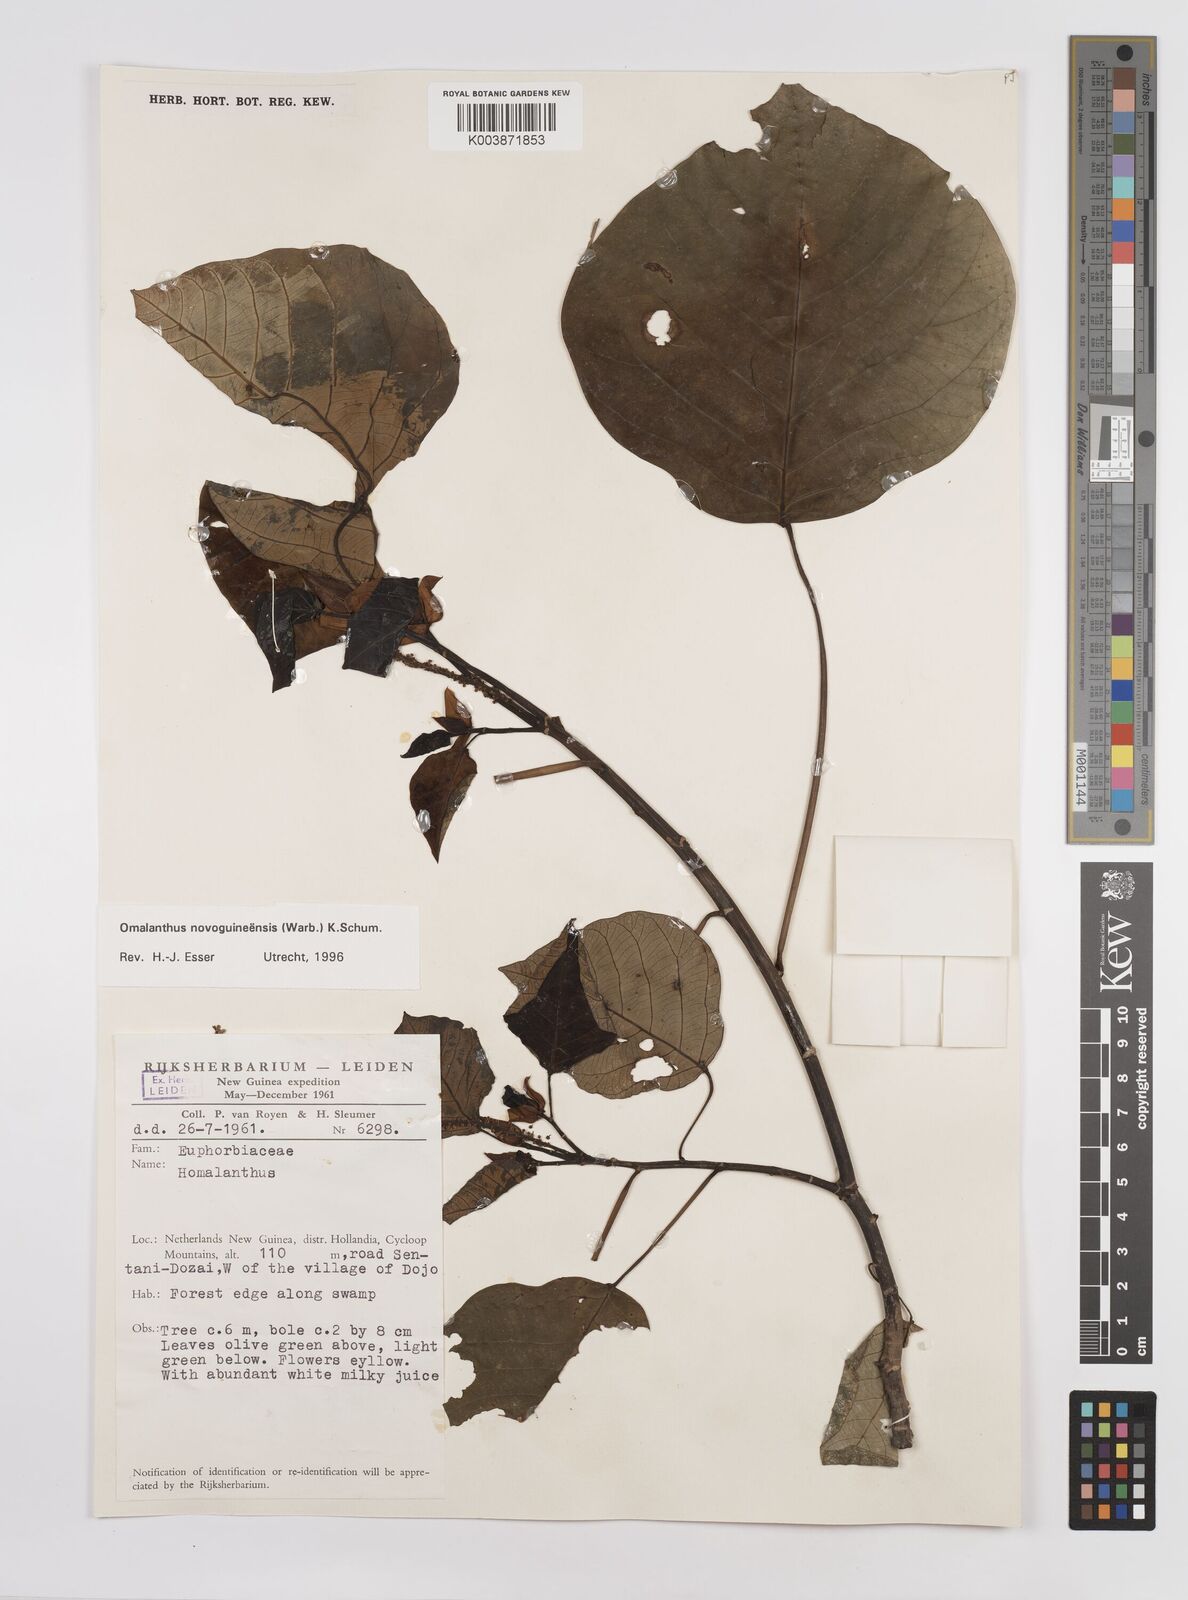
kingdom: Plantae
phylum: Tracheophyta
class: Magnoliopsida
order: Malpighiales
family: Euphorbiaceae
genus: Homalanthus
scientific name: Homalanthus novoguineensis
